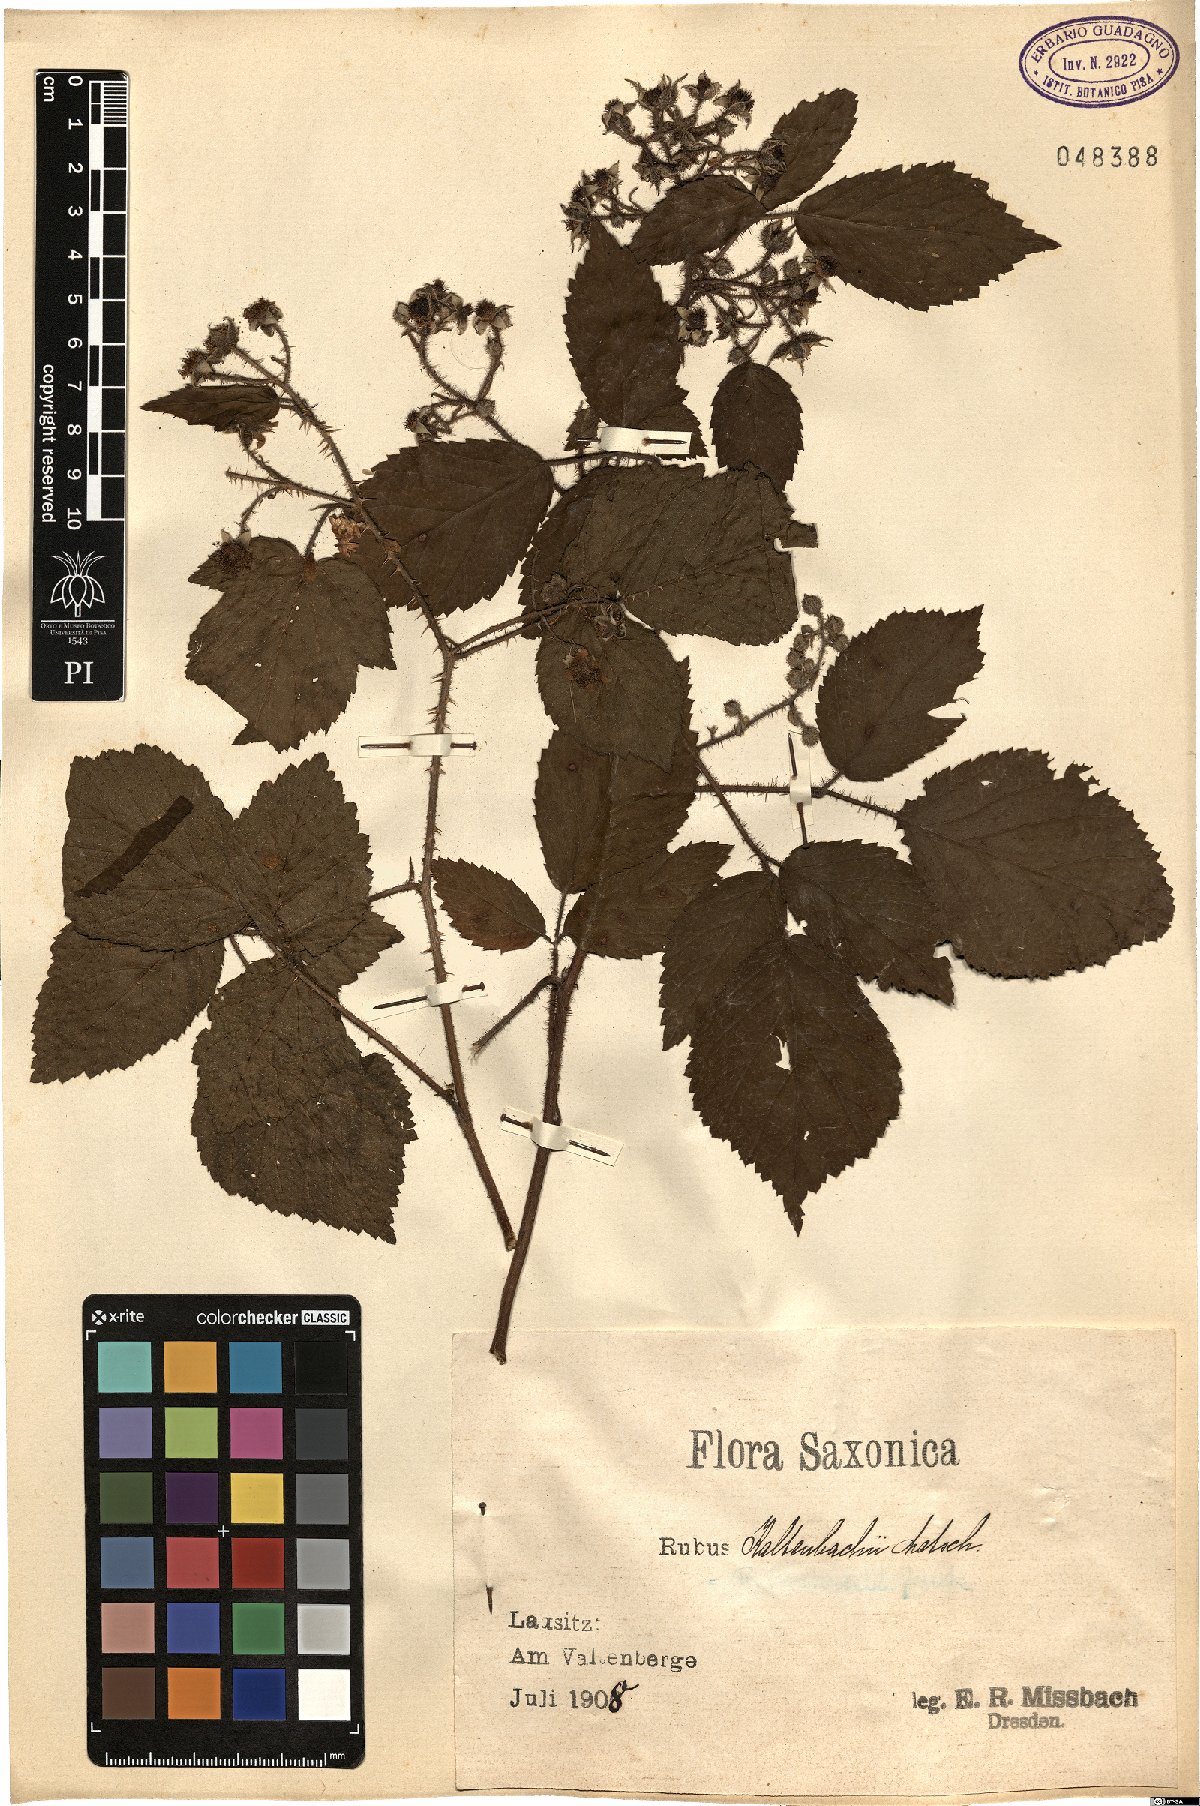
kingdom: Plantae
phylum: Tracheophyta
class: Magnoliopsida
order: Rosales
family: Rosaceae
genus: Rubus
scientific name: Rubus kaltenbachii
